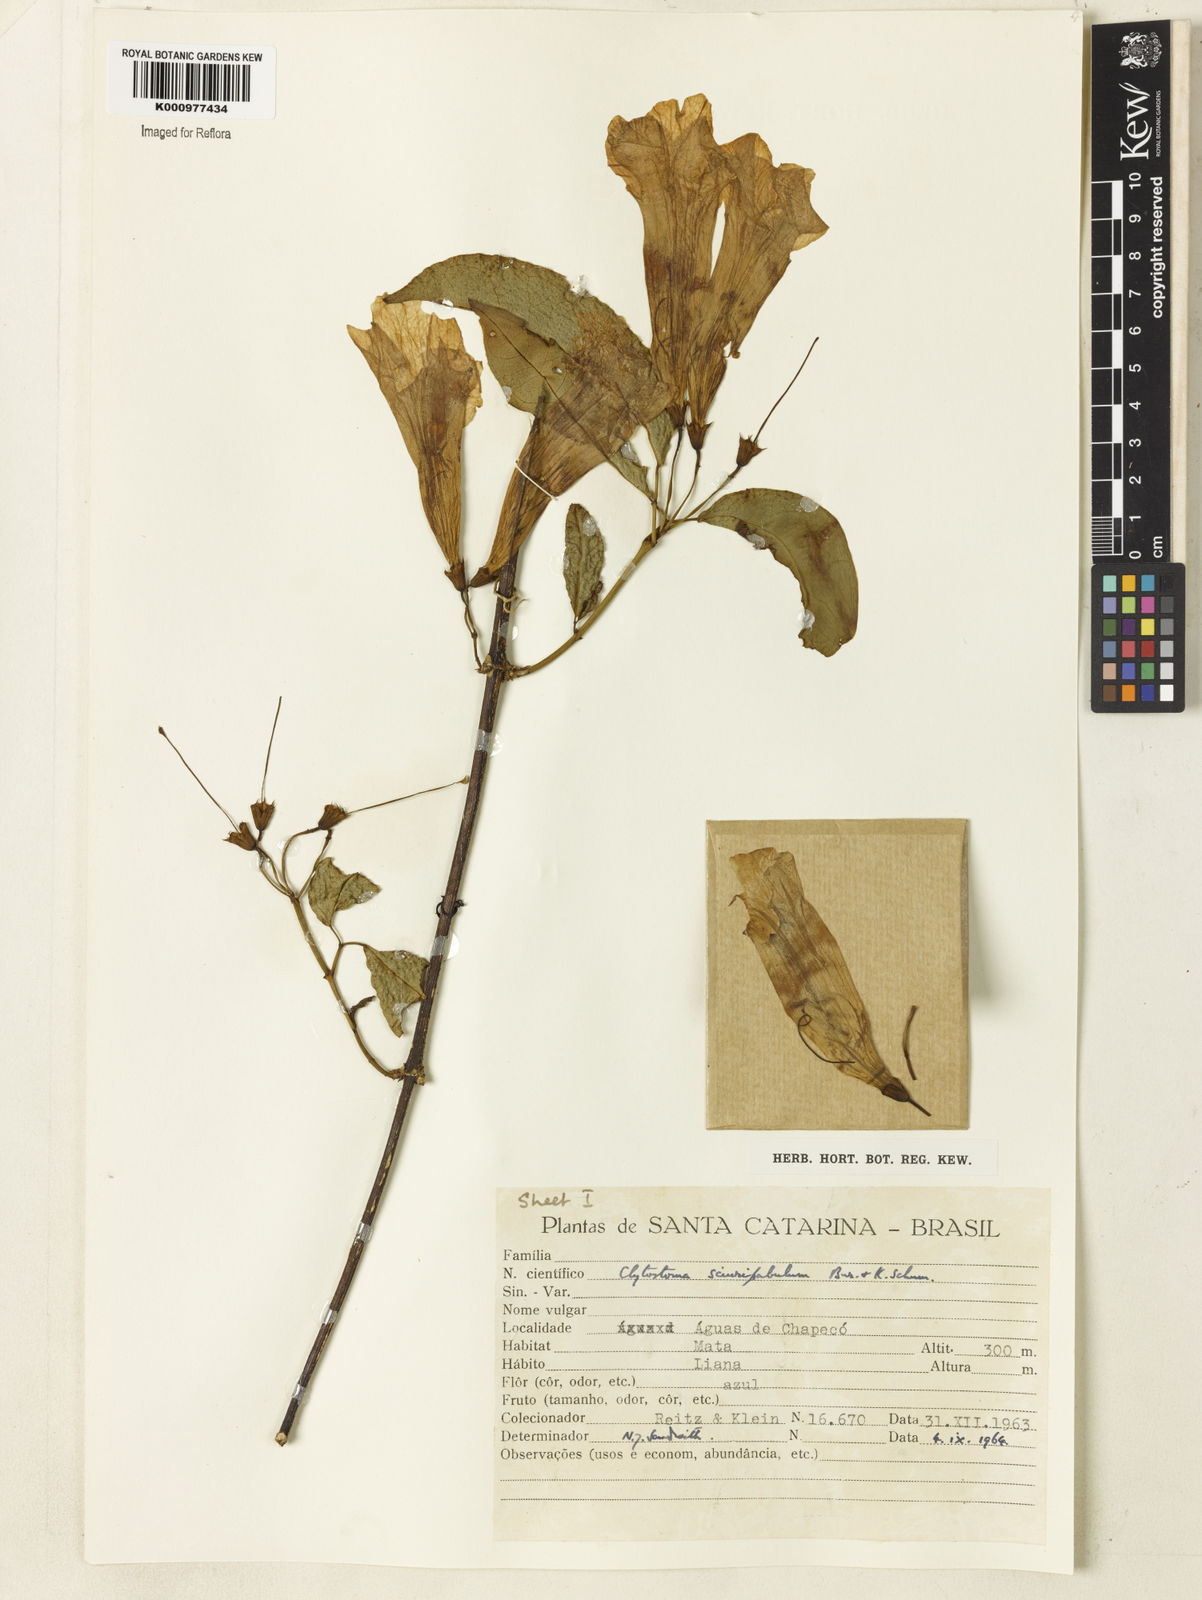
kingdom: Plantae
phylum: Tracheophyta
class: Magnoliopsida
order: Lamiales
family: Bignoniaceae
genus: Bignonia
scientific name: Bignonia
